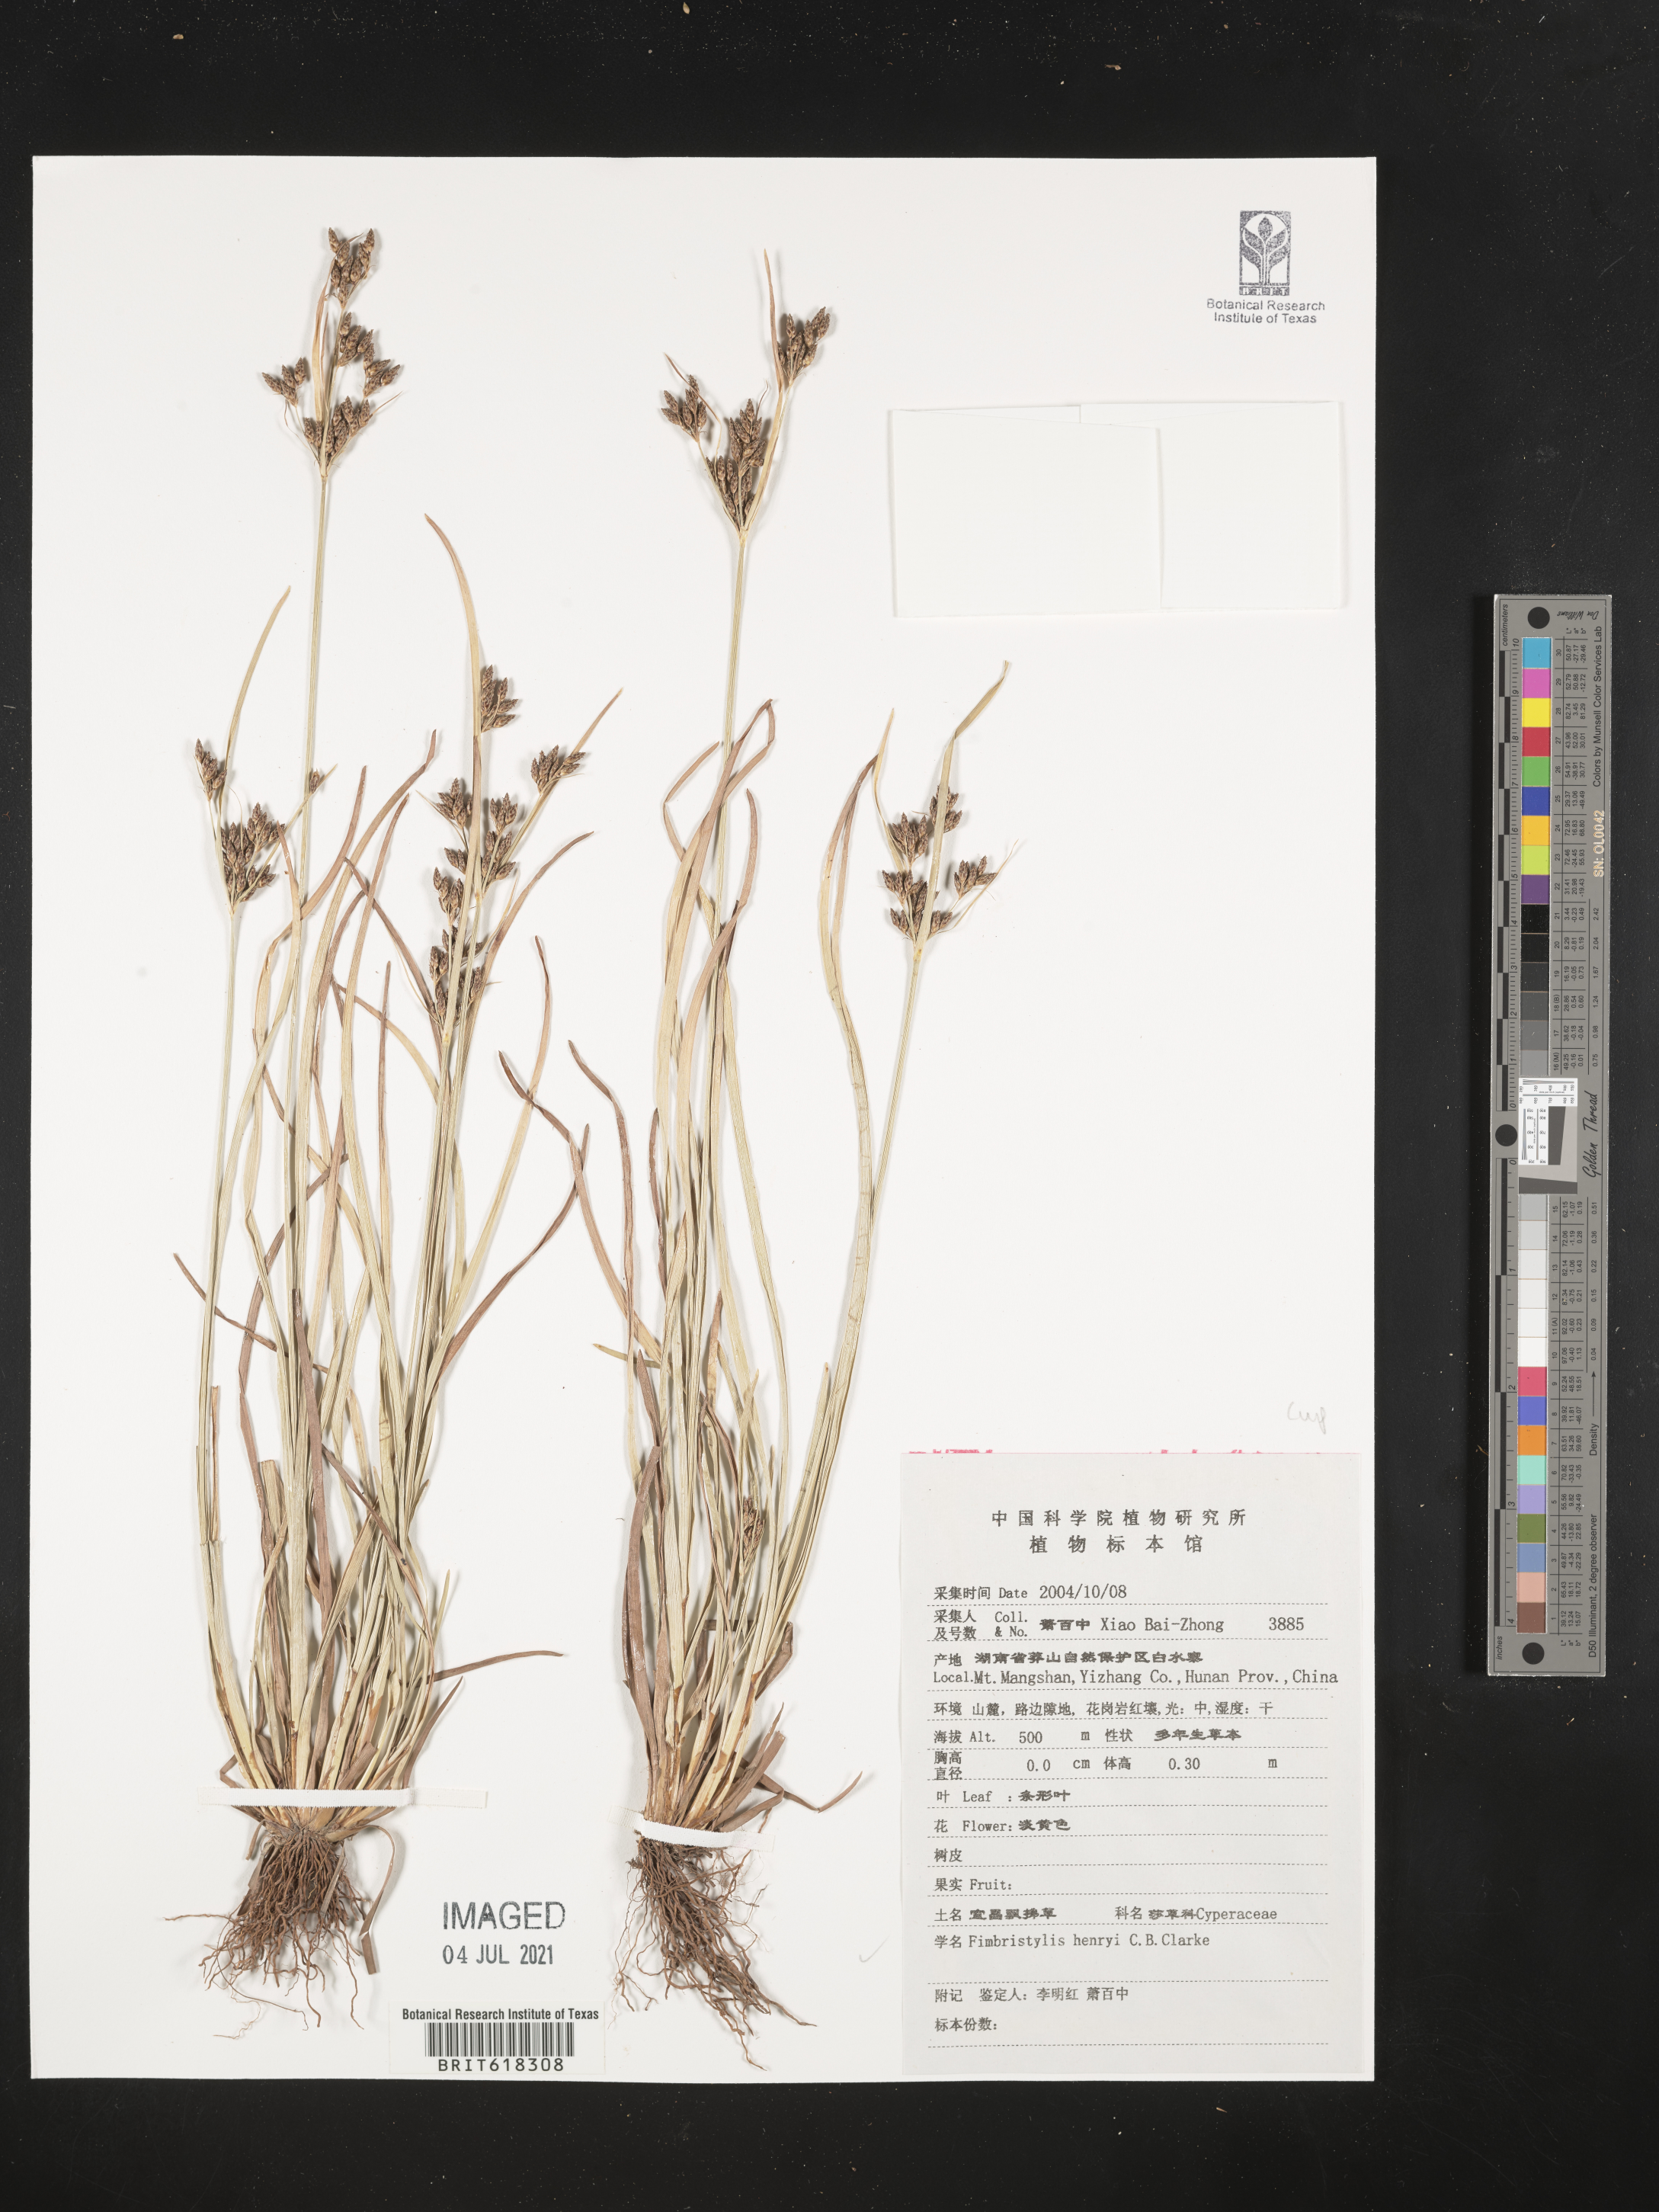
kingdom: Plantae
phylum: Tracheophyta
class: Liliopsida
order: Poales
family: Cyperaceae
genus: Fimbristylis
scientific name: Fimbristylis henryi
